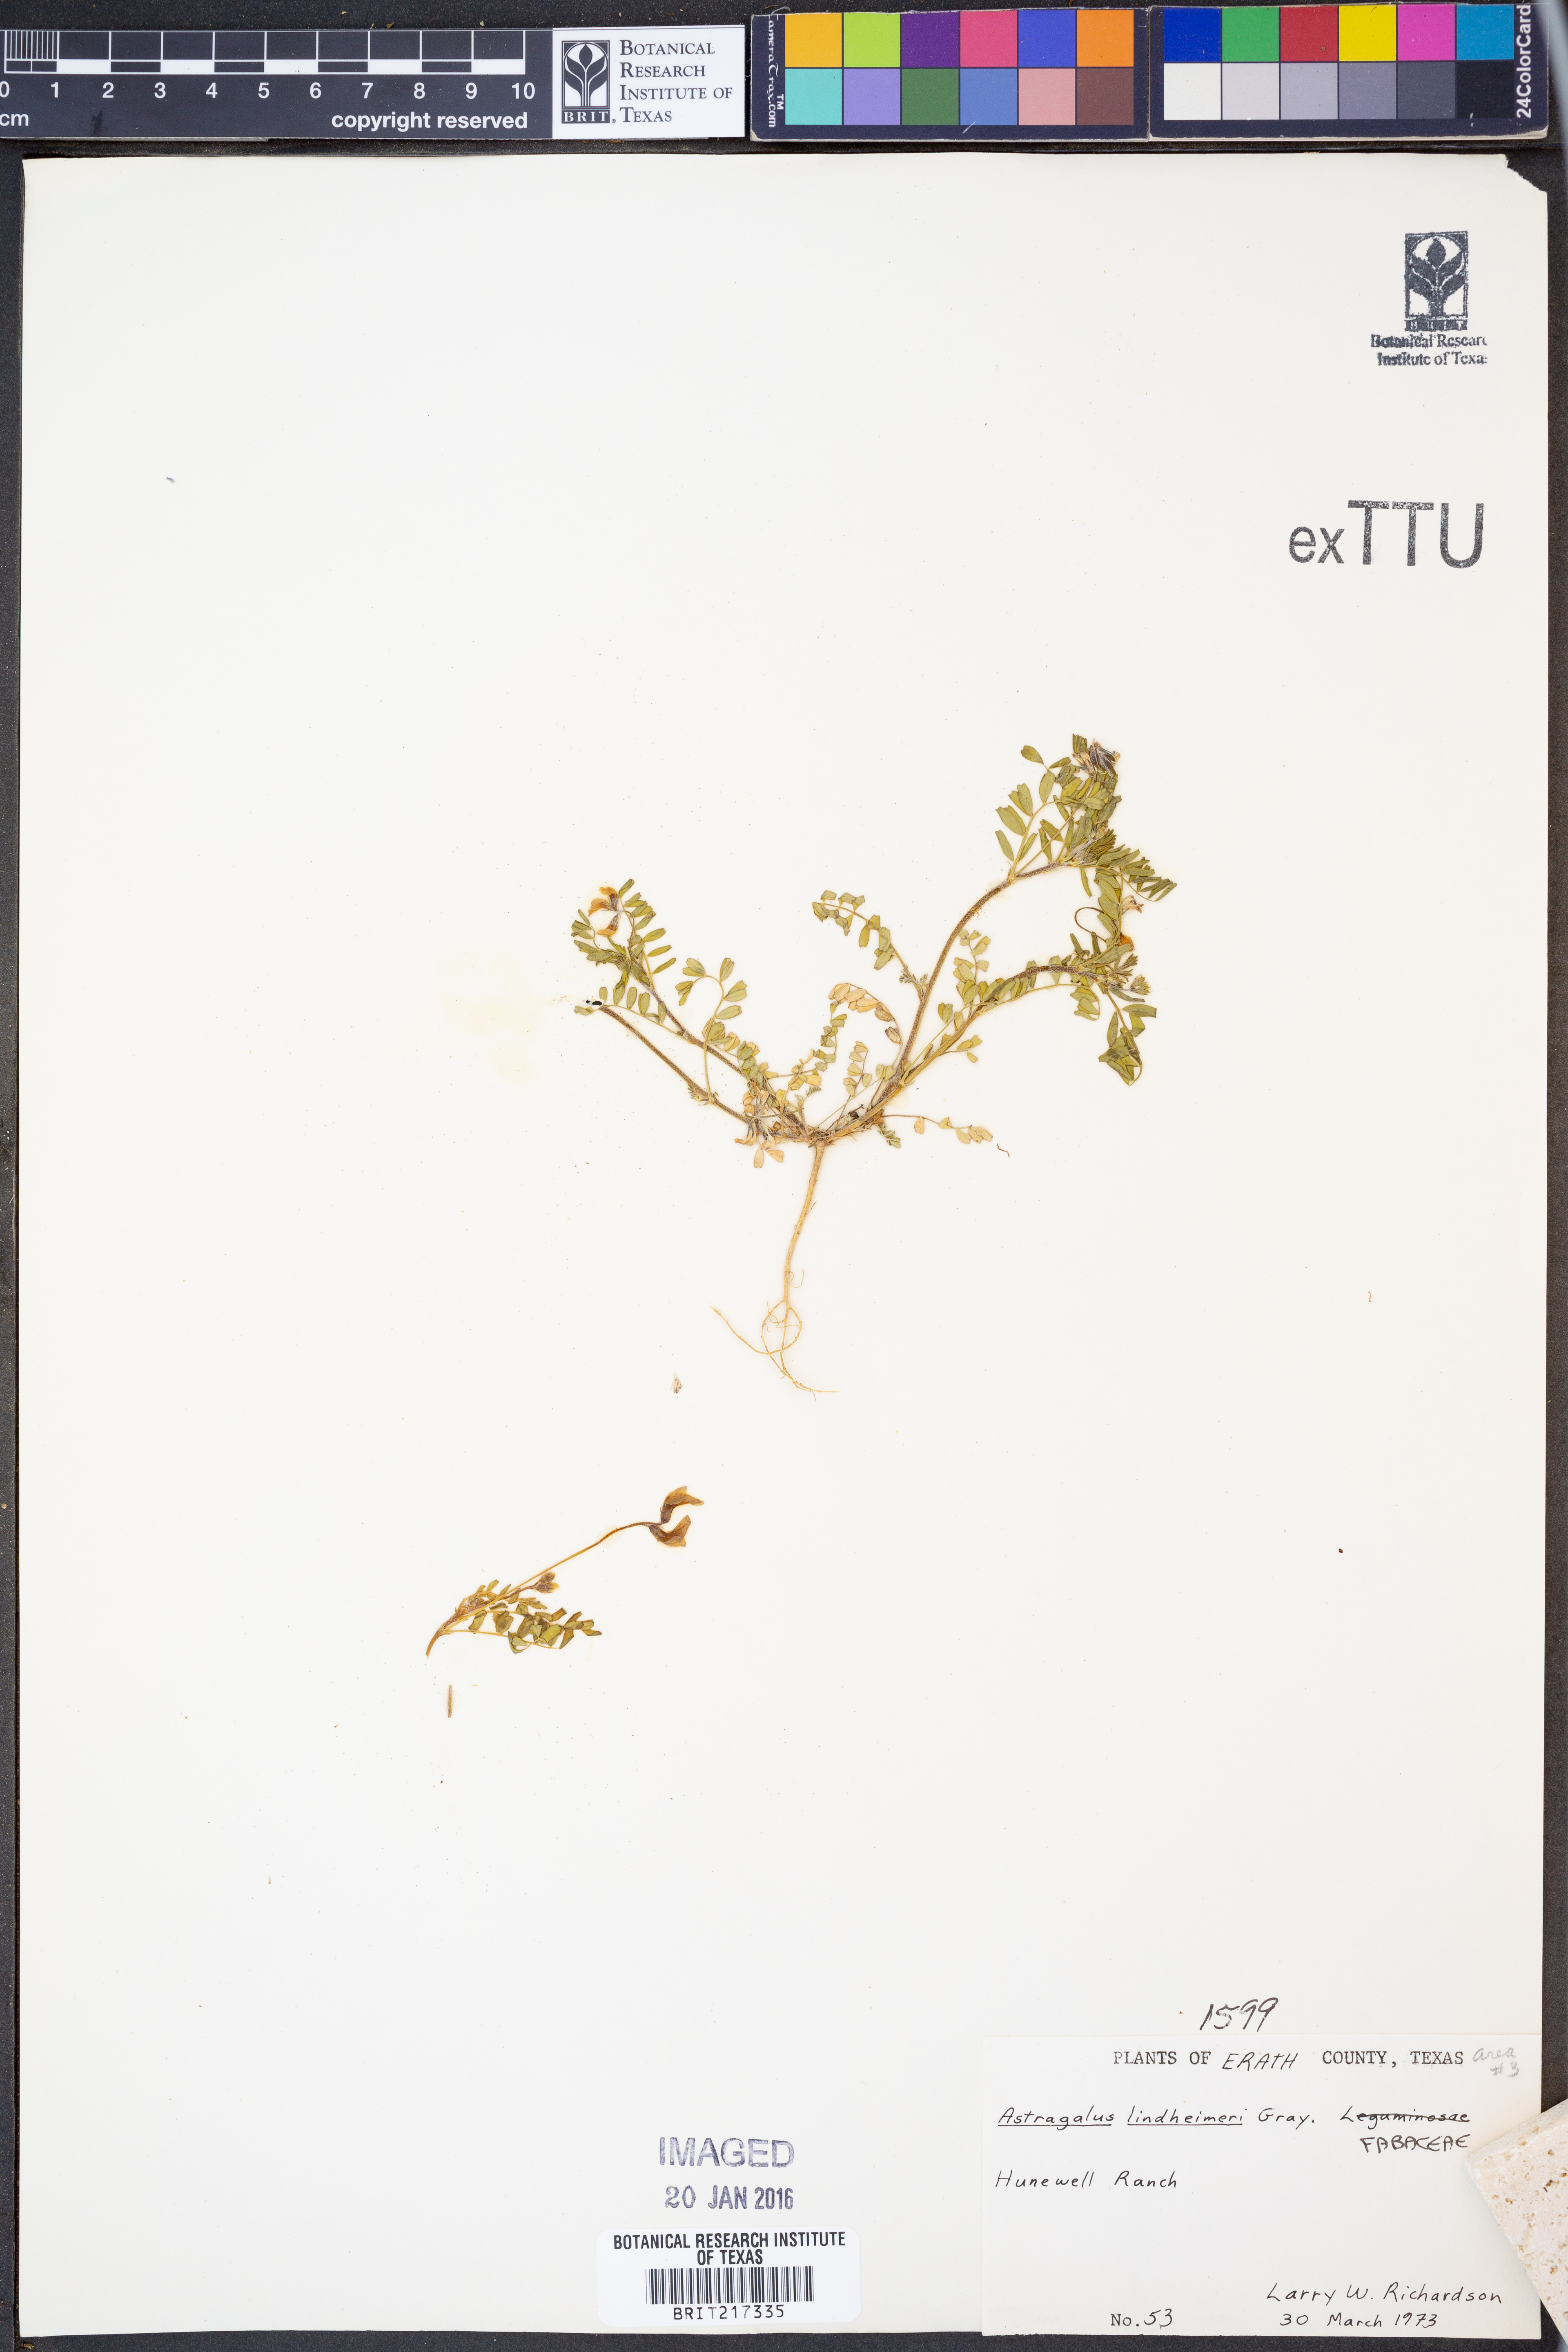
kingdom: Plantae
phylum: Tracheophyta
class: Magnoliopsida
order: Fabales
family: Fabaceae
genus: Astragalus
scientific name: Astragalus lindheimeri
